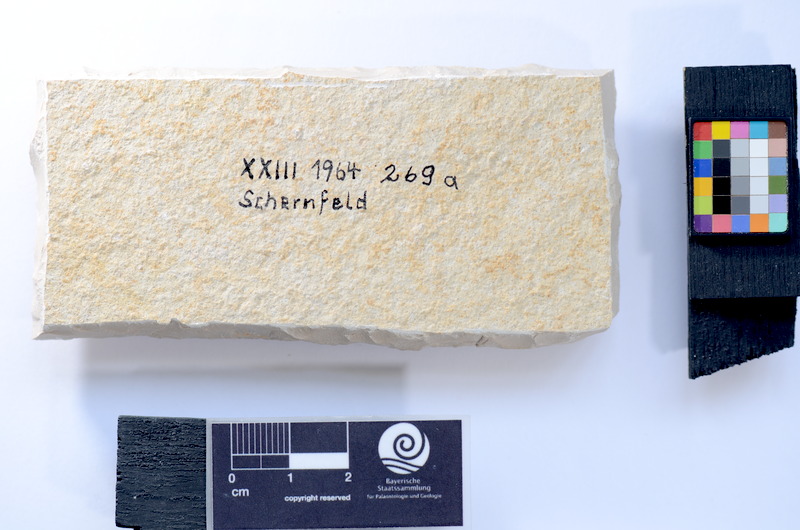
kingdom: Animalia
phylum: Chordata
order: Salmoniformes
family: Orthogonikleithridae
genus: Leptolepides
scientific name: Leptolepides
